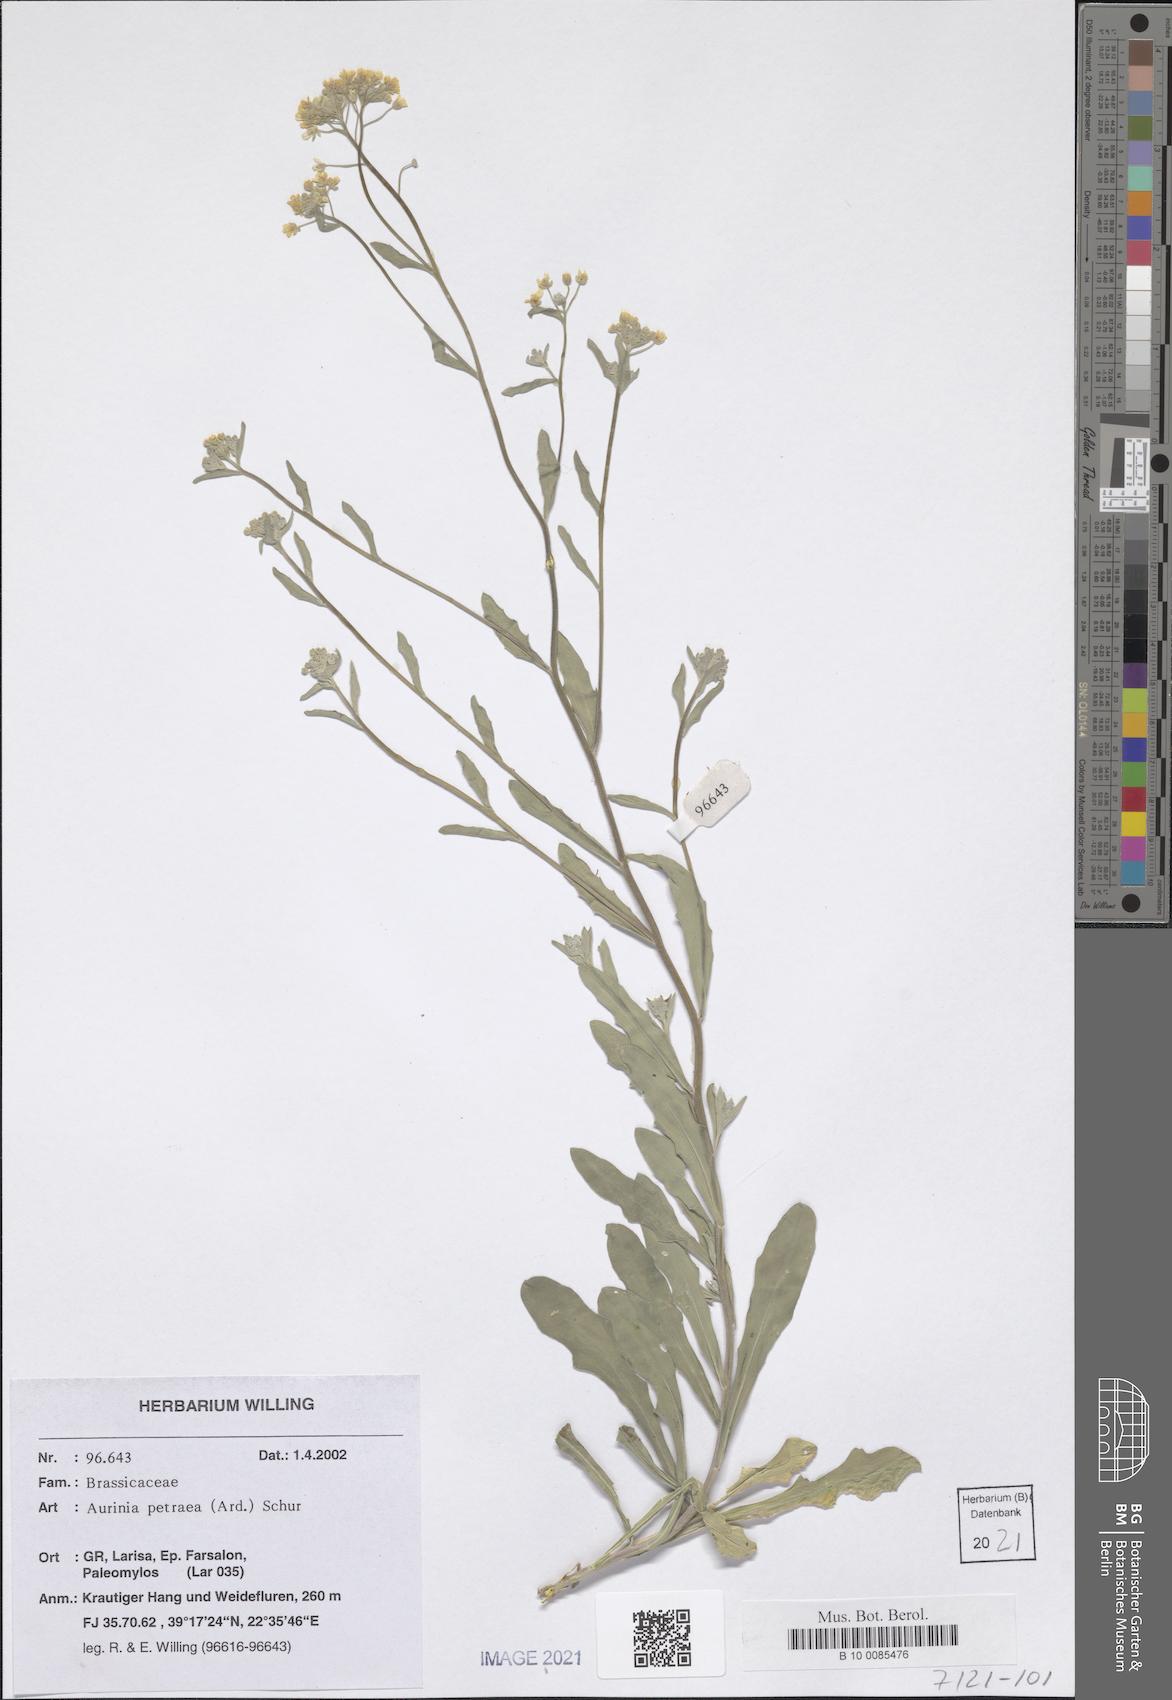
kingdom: Plantae
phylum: Tracheophyta
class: Magnoliopsida
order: Brassicales
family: Brassicaceae
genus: Aurinia
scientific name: Aurinia petraea
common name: Goldentuft
